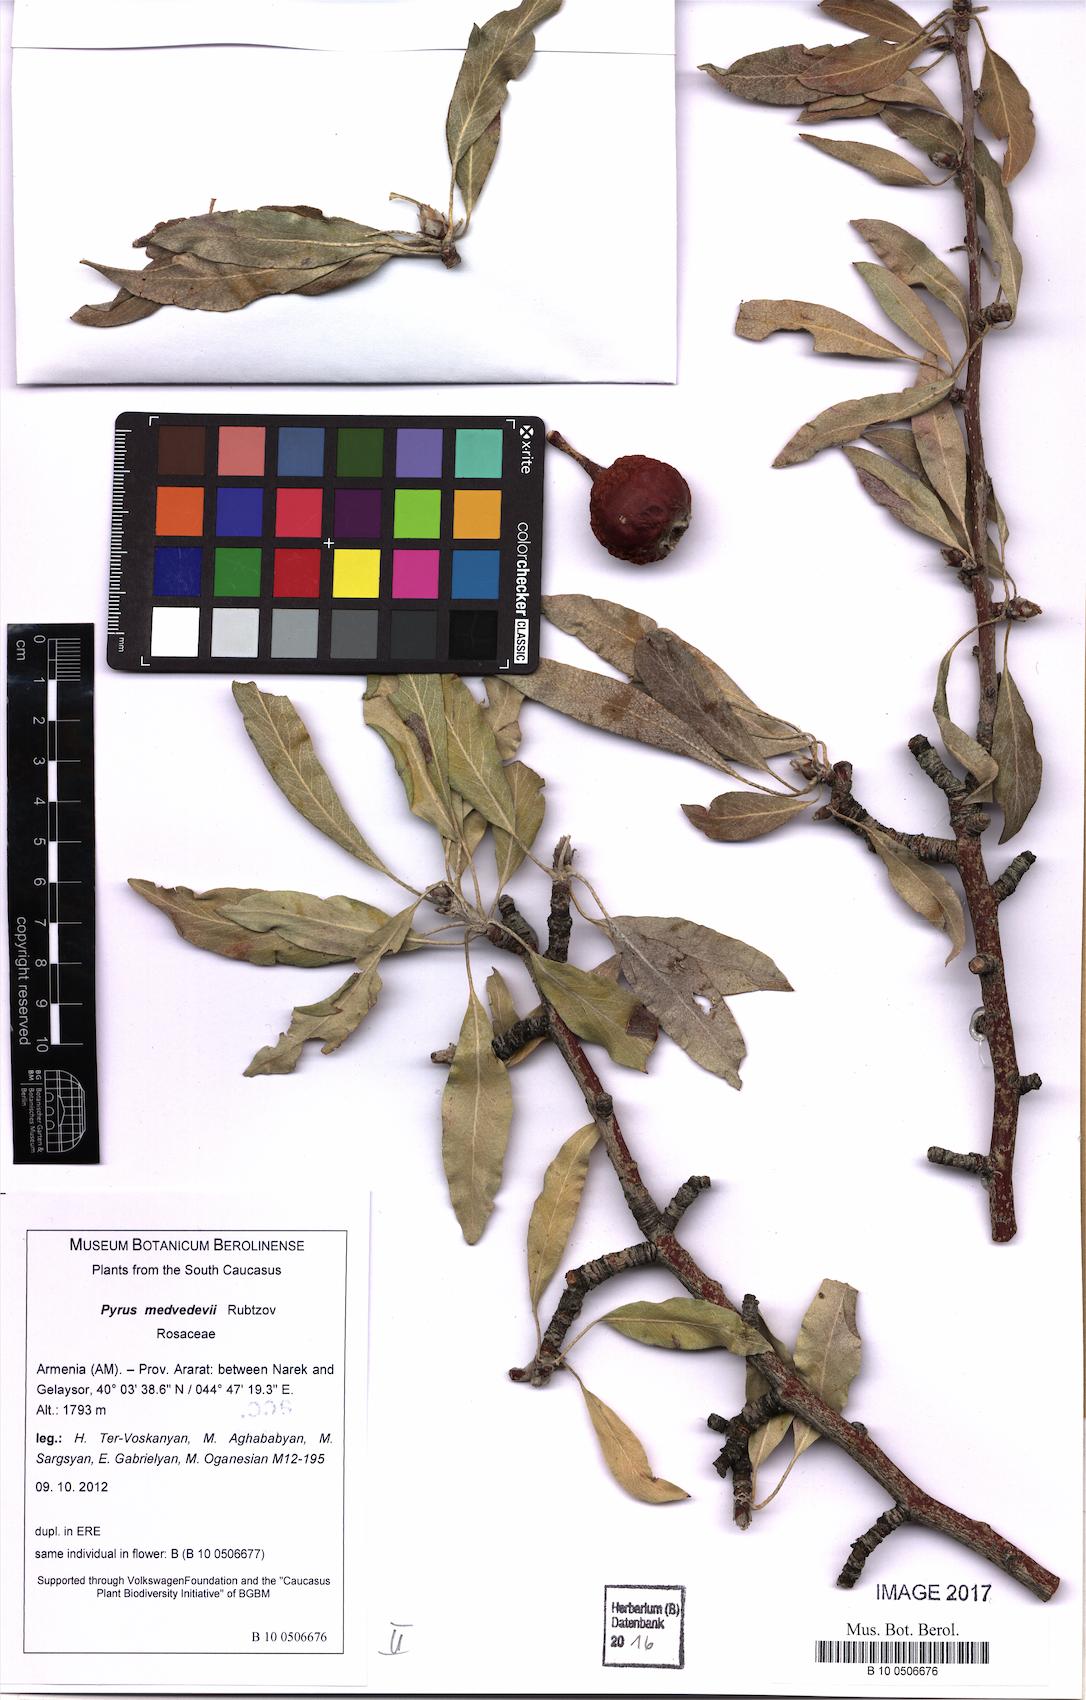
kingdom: Plantae
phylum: Tracheophyta
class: Magnoliopsida
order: Rosales
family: Rosaceae
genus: Pyrus
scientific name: Pyrus medvedevii
